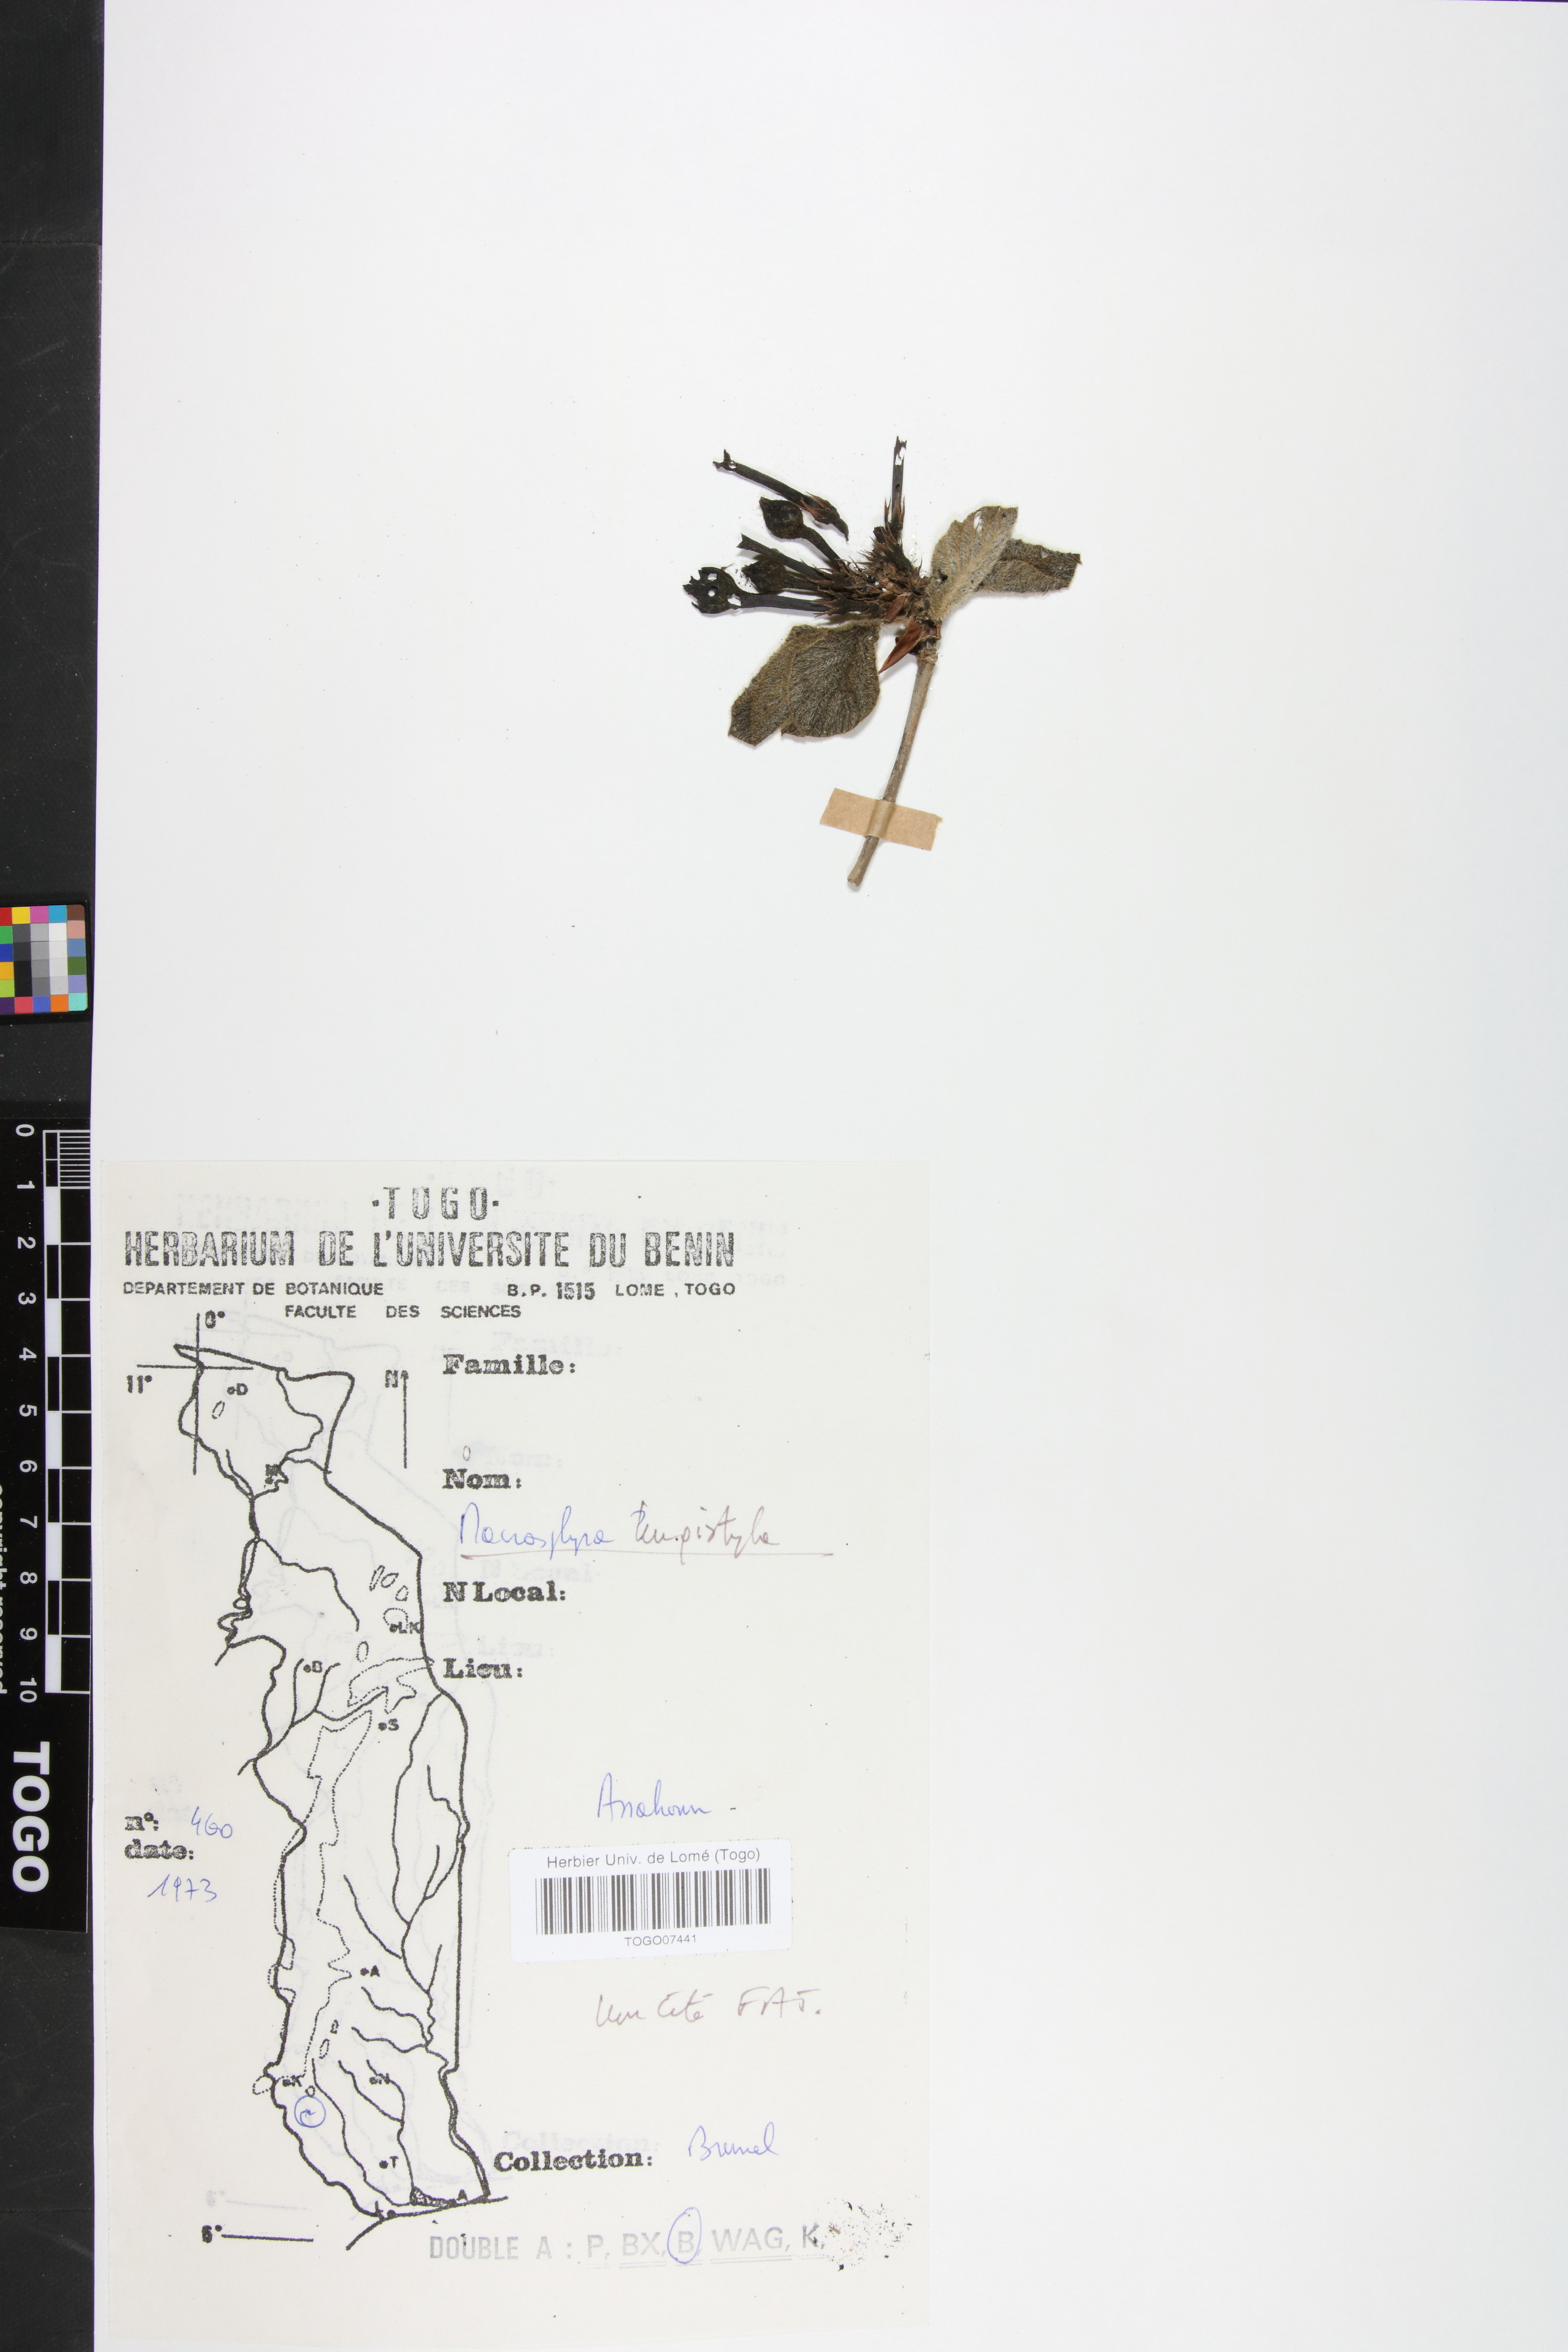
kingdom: Plantae
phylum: Tracheophyta
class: Magnoliopsida
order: Gentianales
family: Rubiaceae
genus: Macrosphyra
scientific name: Macrosphyra longistyla
